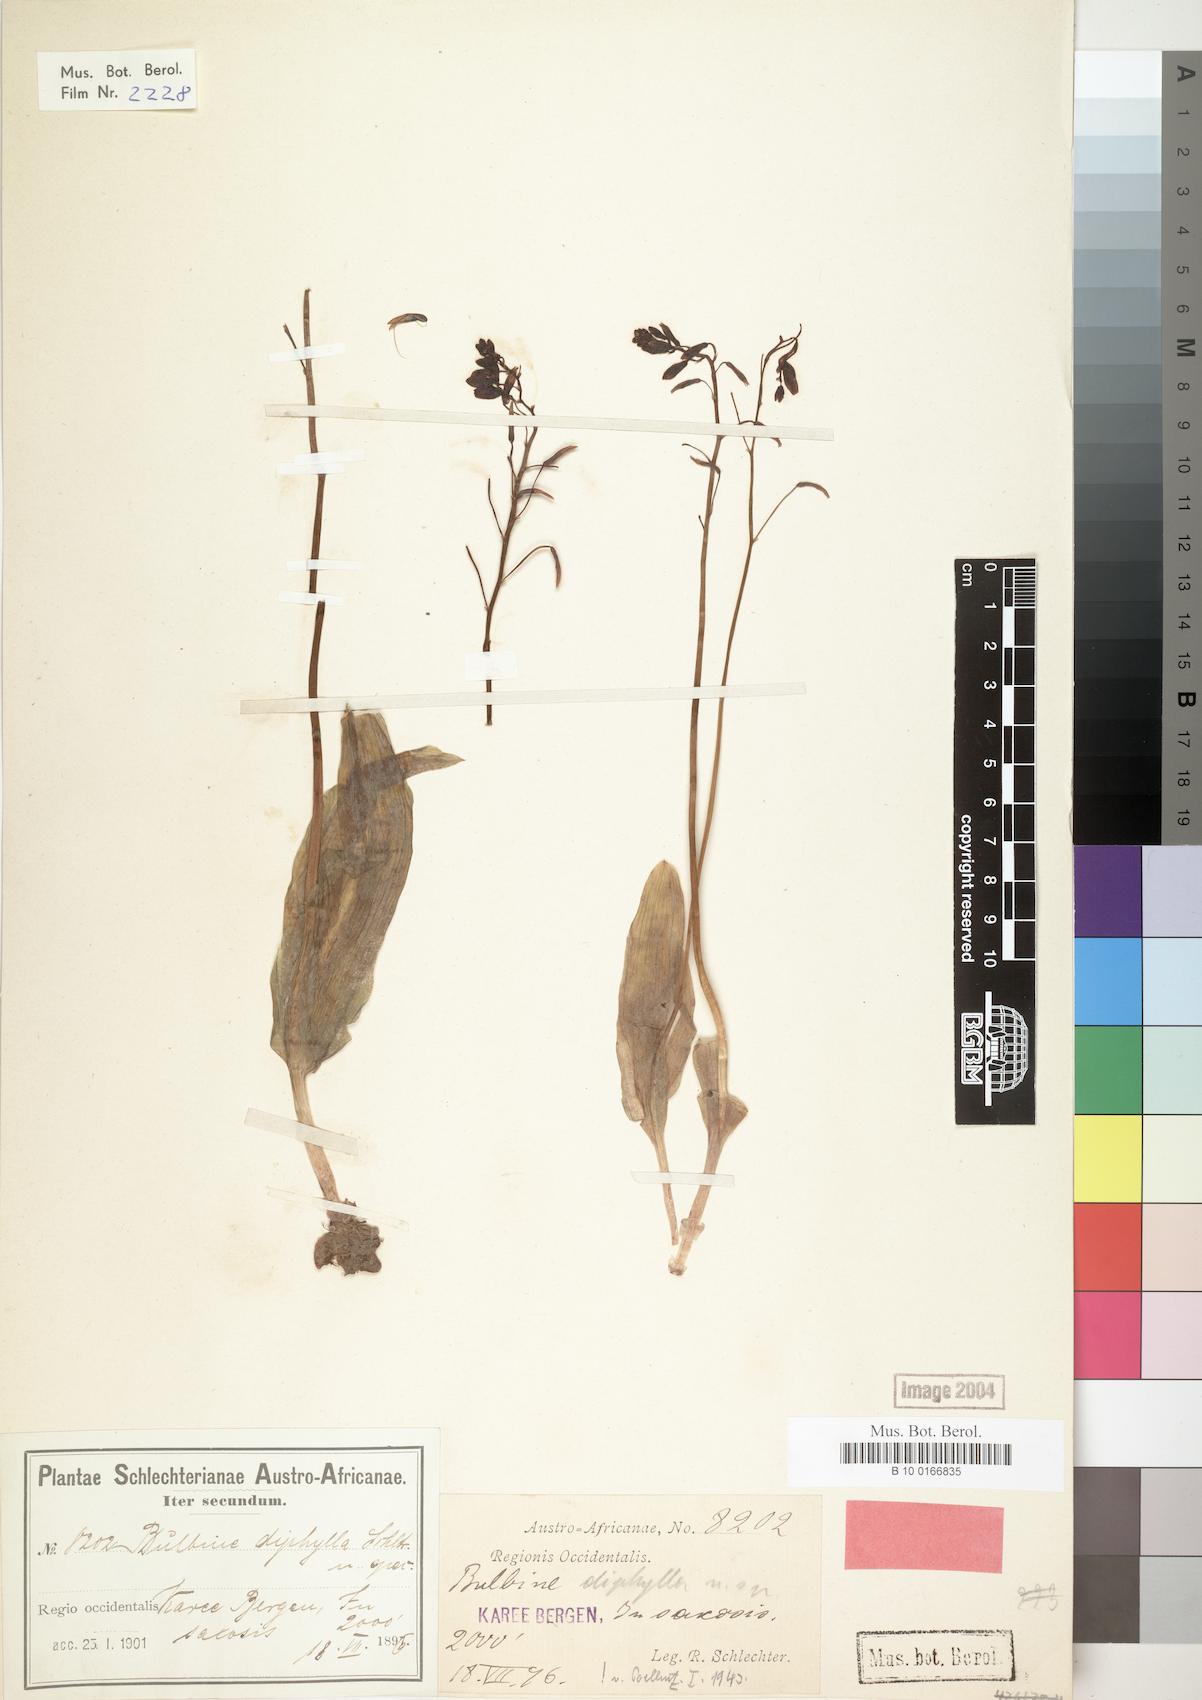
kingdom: Plantae
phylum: Tracheophyta
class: Liliopsida
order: Asparagales
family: Asphodelaceae
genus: Bulbine
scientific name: Bulbine diphylla
